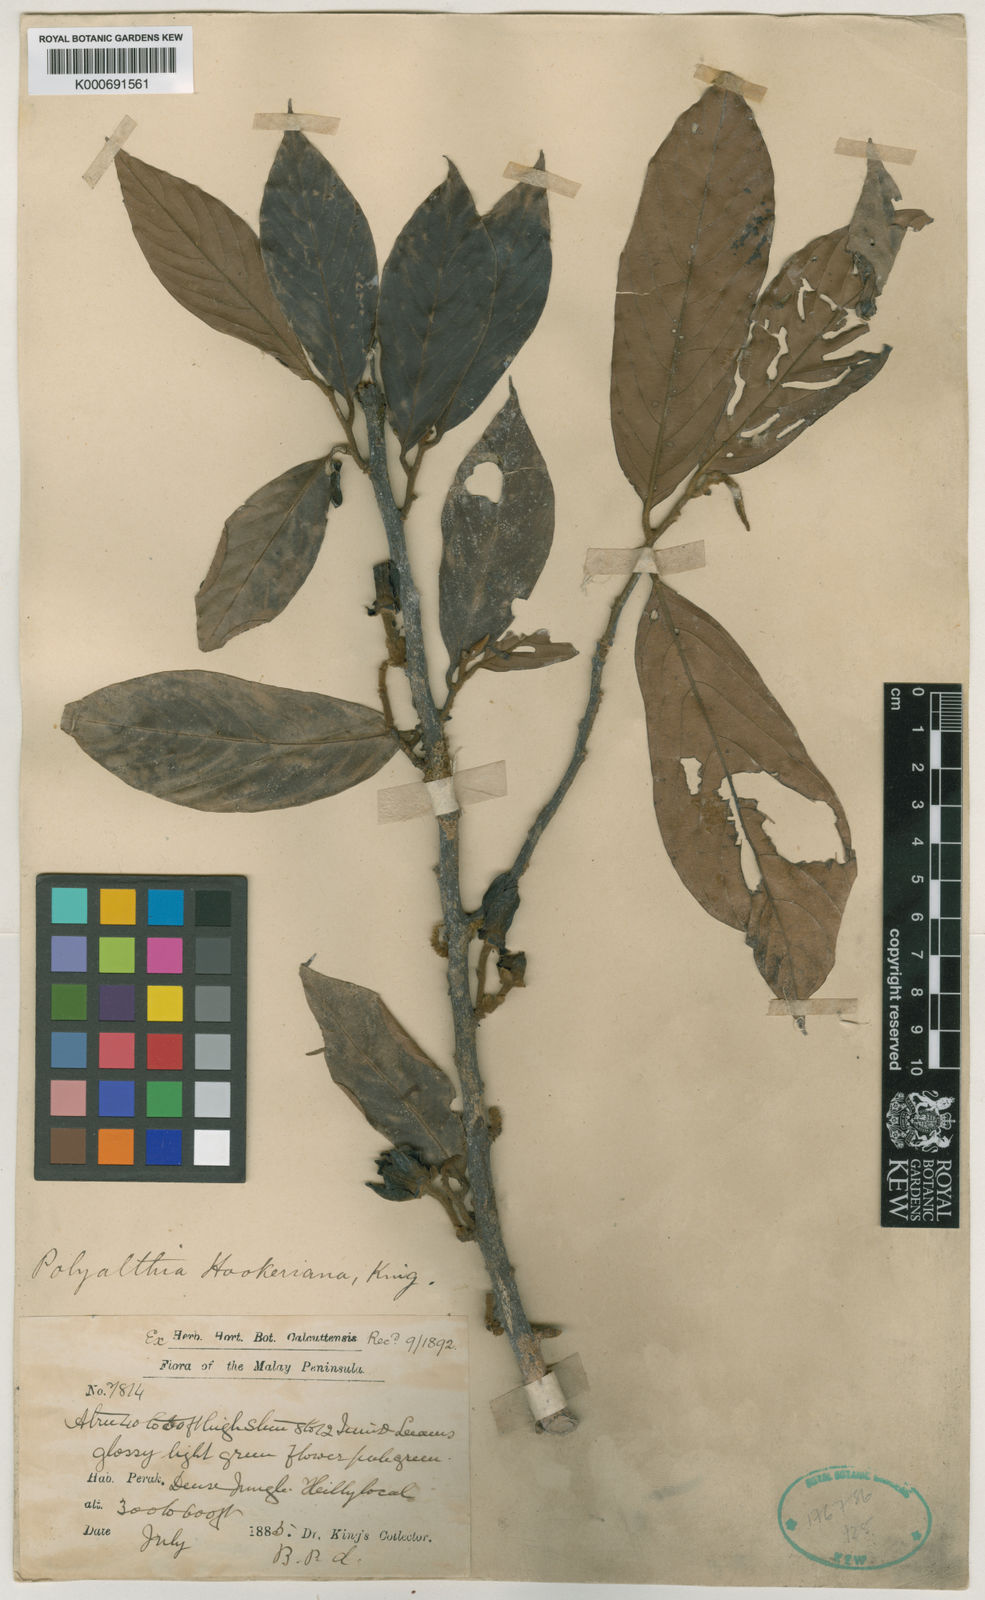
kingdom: Plantae
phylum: Tracheophyta
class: Magnoliopsida
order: Magnoliales
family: Annonaceae
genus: Polyalthia
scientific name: Polyalthia hookeriana
